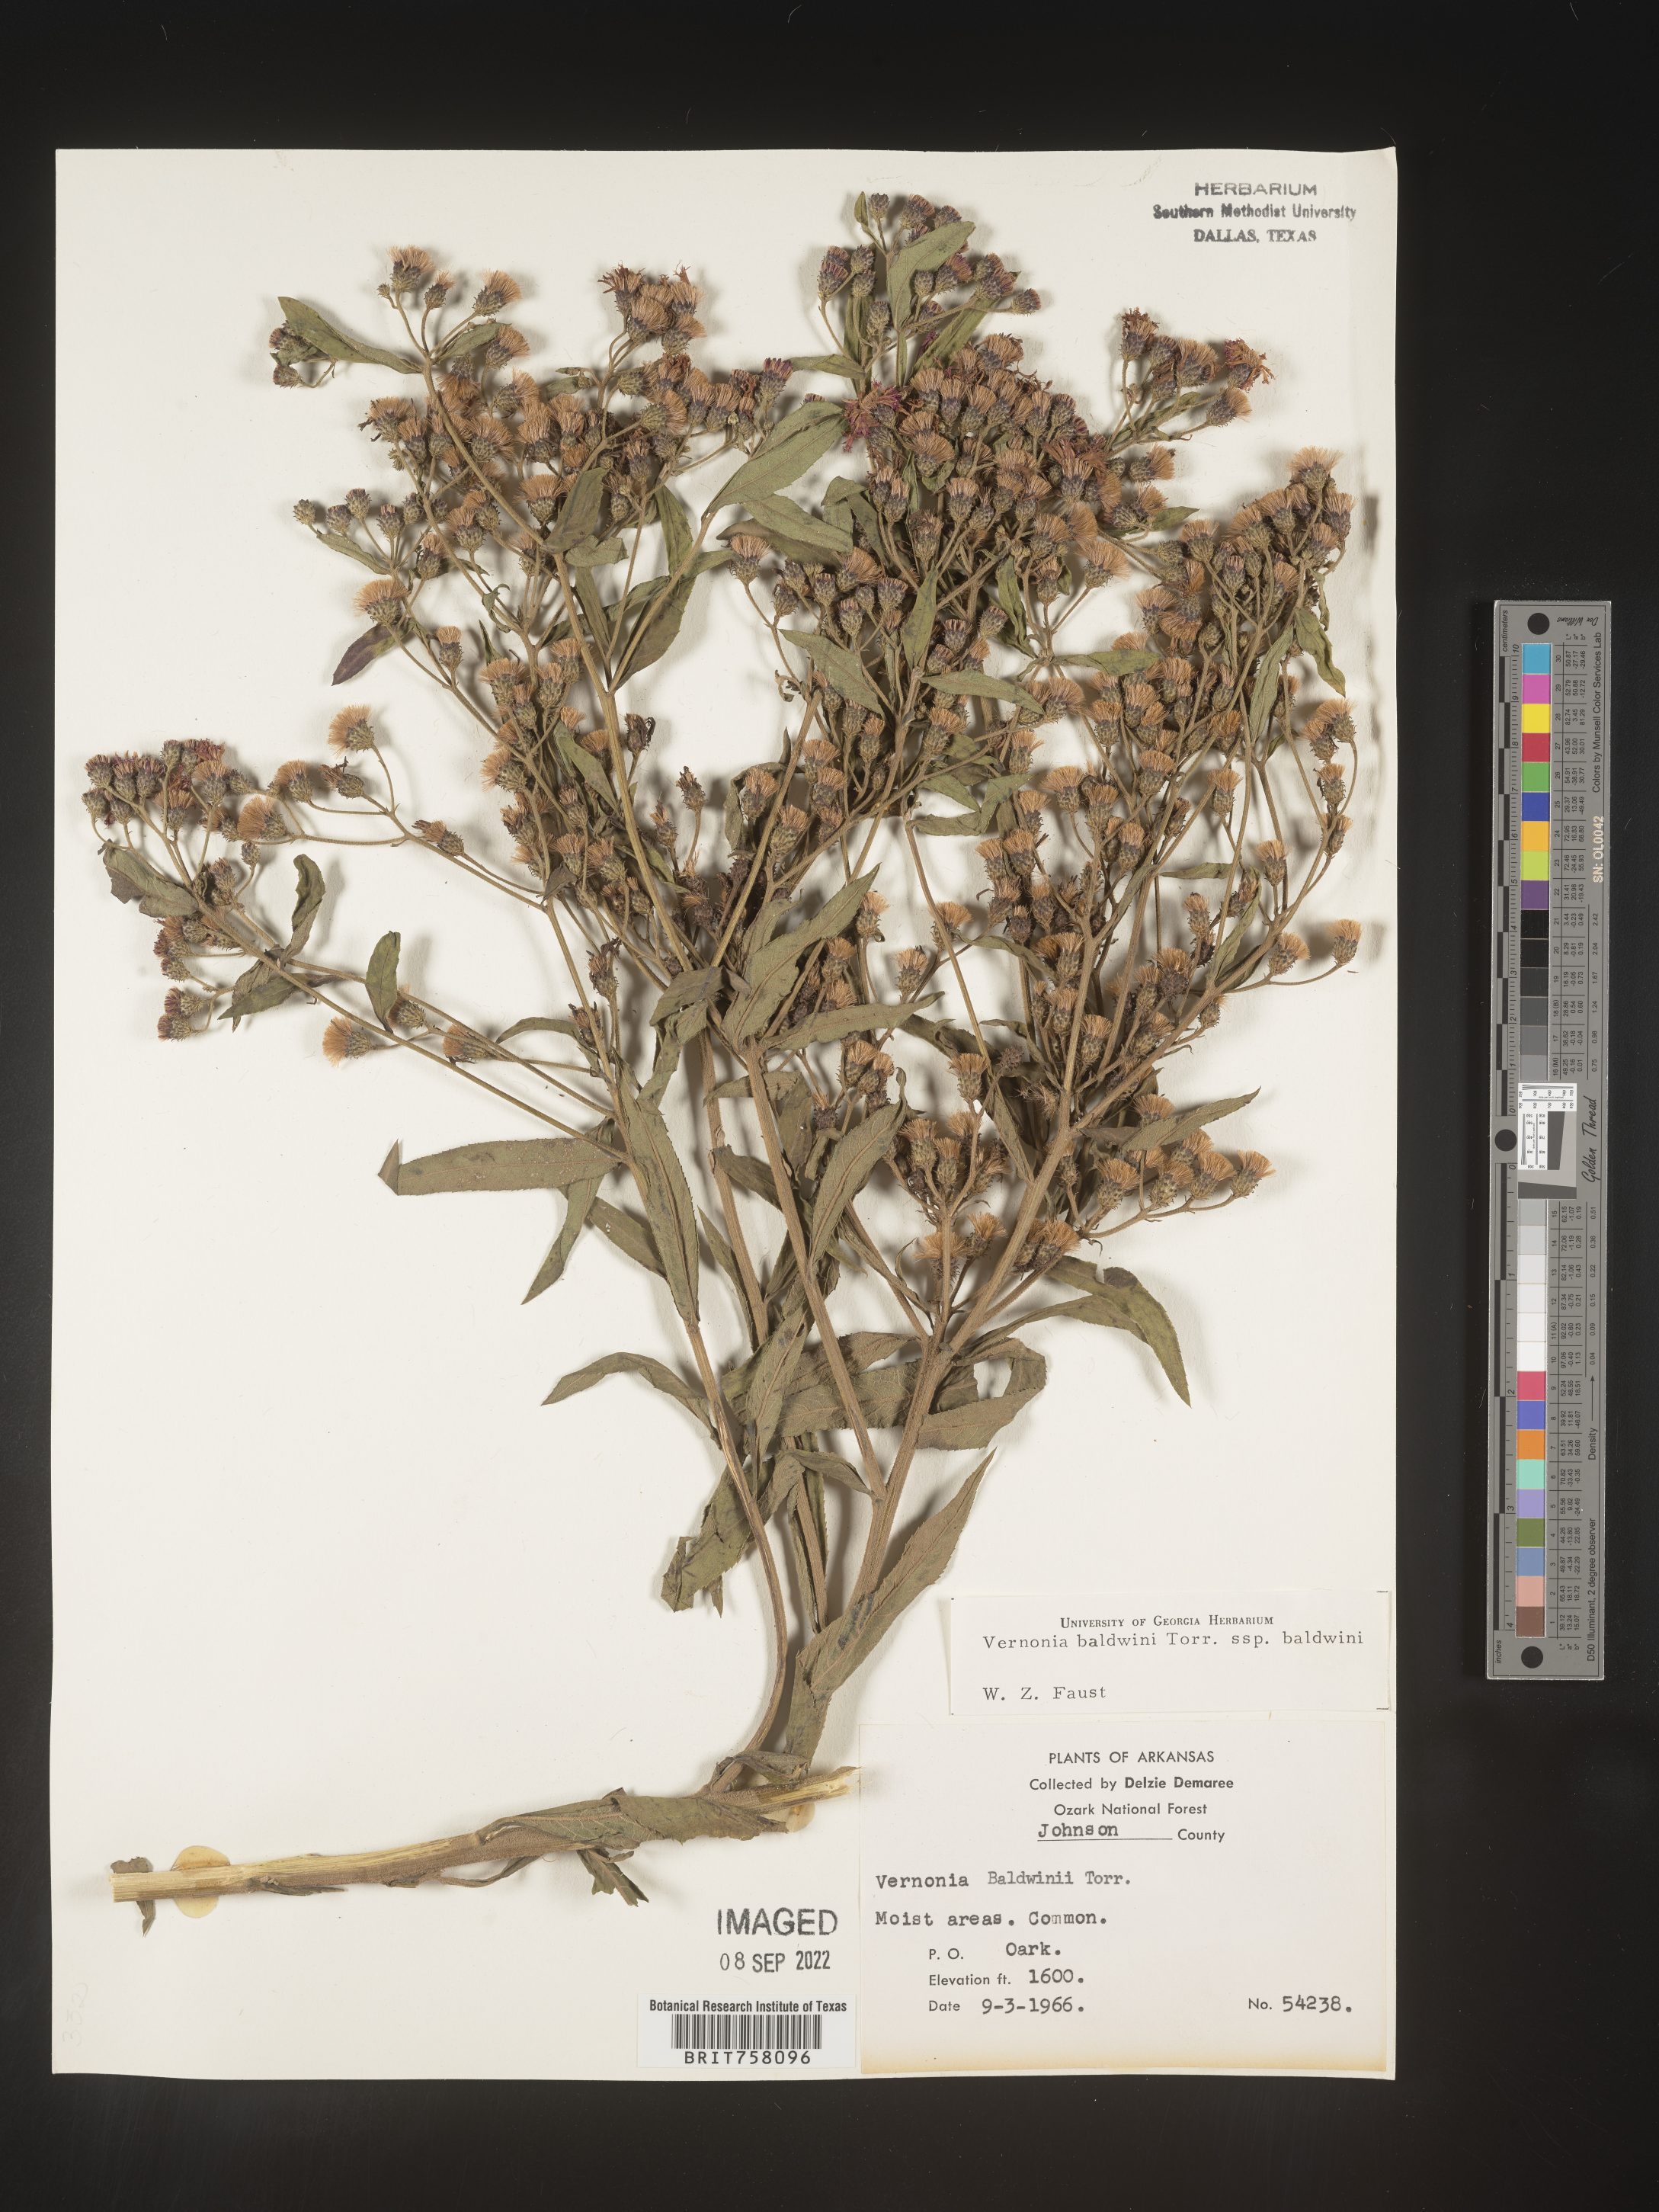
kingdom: Plantae
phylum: Tracheophyta
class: Magnoliopsida
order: Asterales
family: Asteraceae
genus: Vernonia
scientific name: Vernonia baldwinii
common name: Western ironweed
